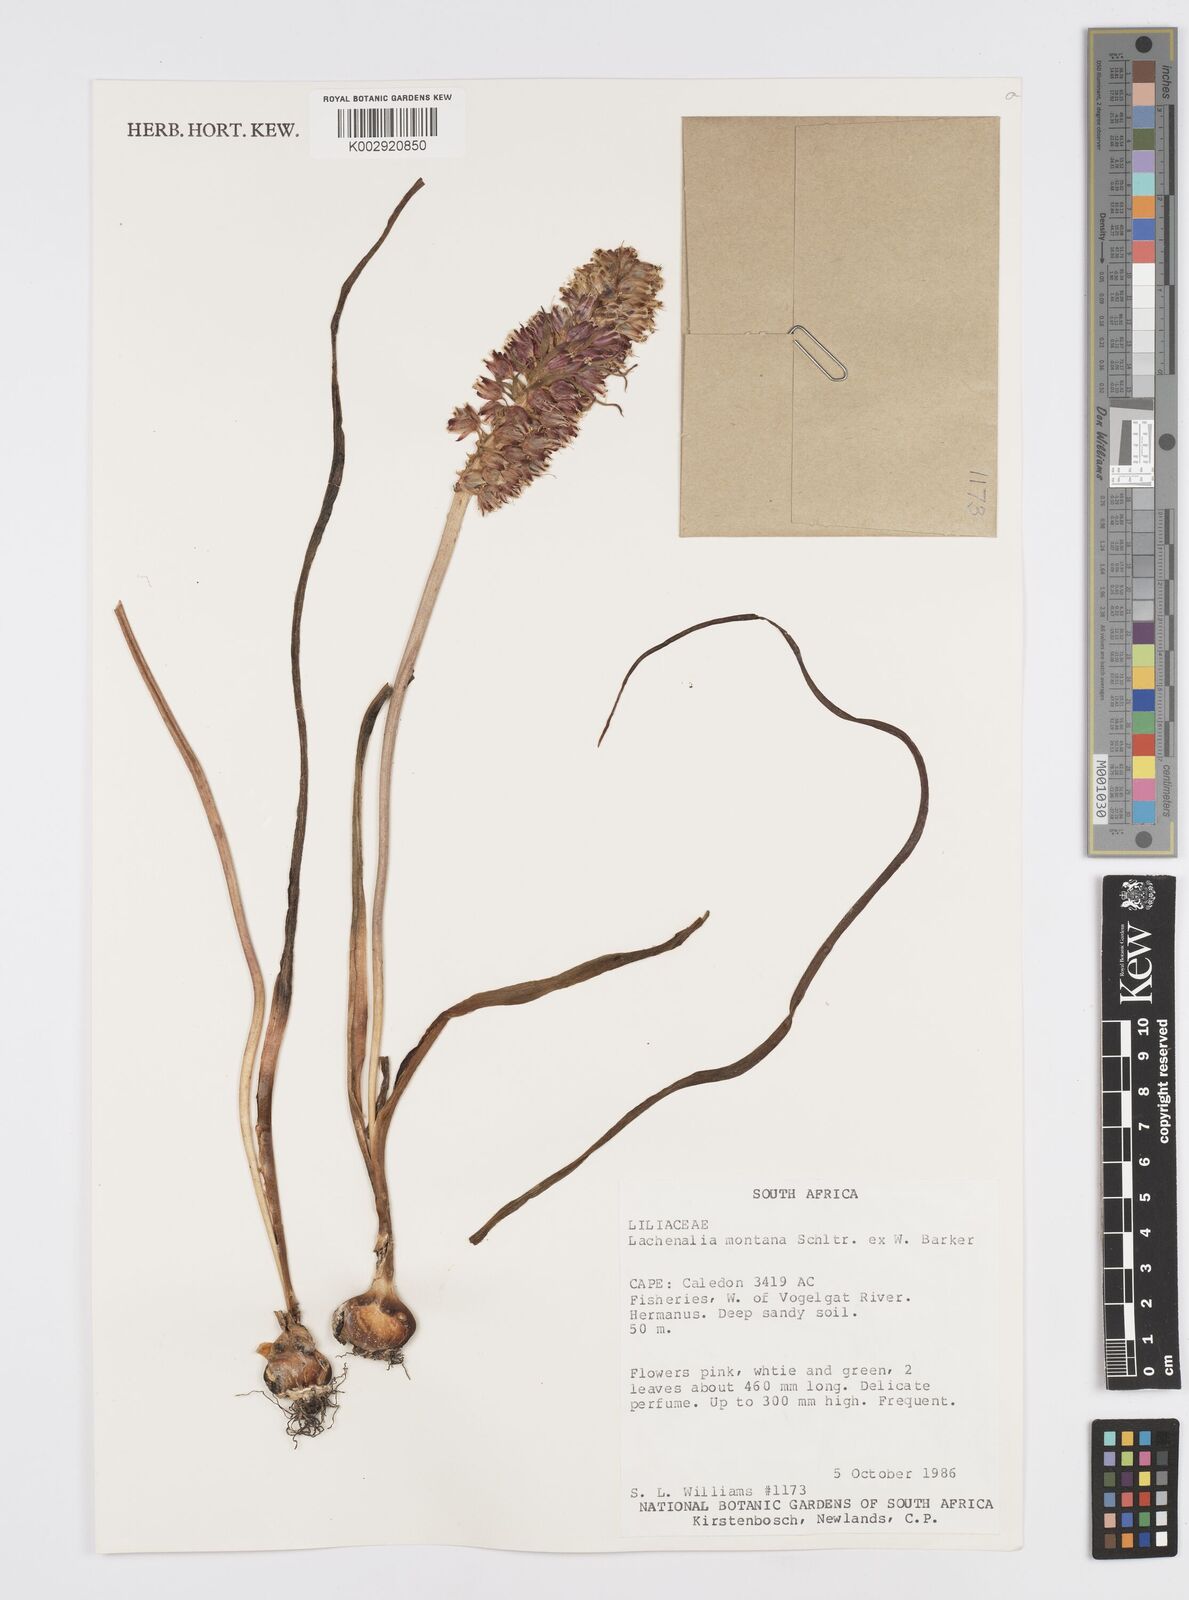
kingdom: Plantae
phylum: Tracheophyta
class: Liliopsida
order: Asparagales
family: Asparagaceae
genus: Lachenalia
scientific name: Lachenalia montana
